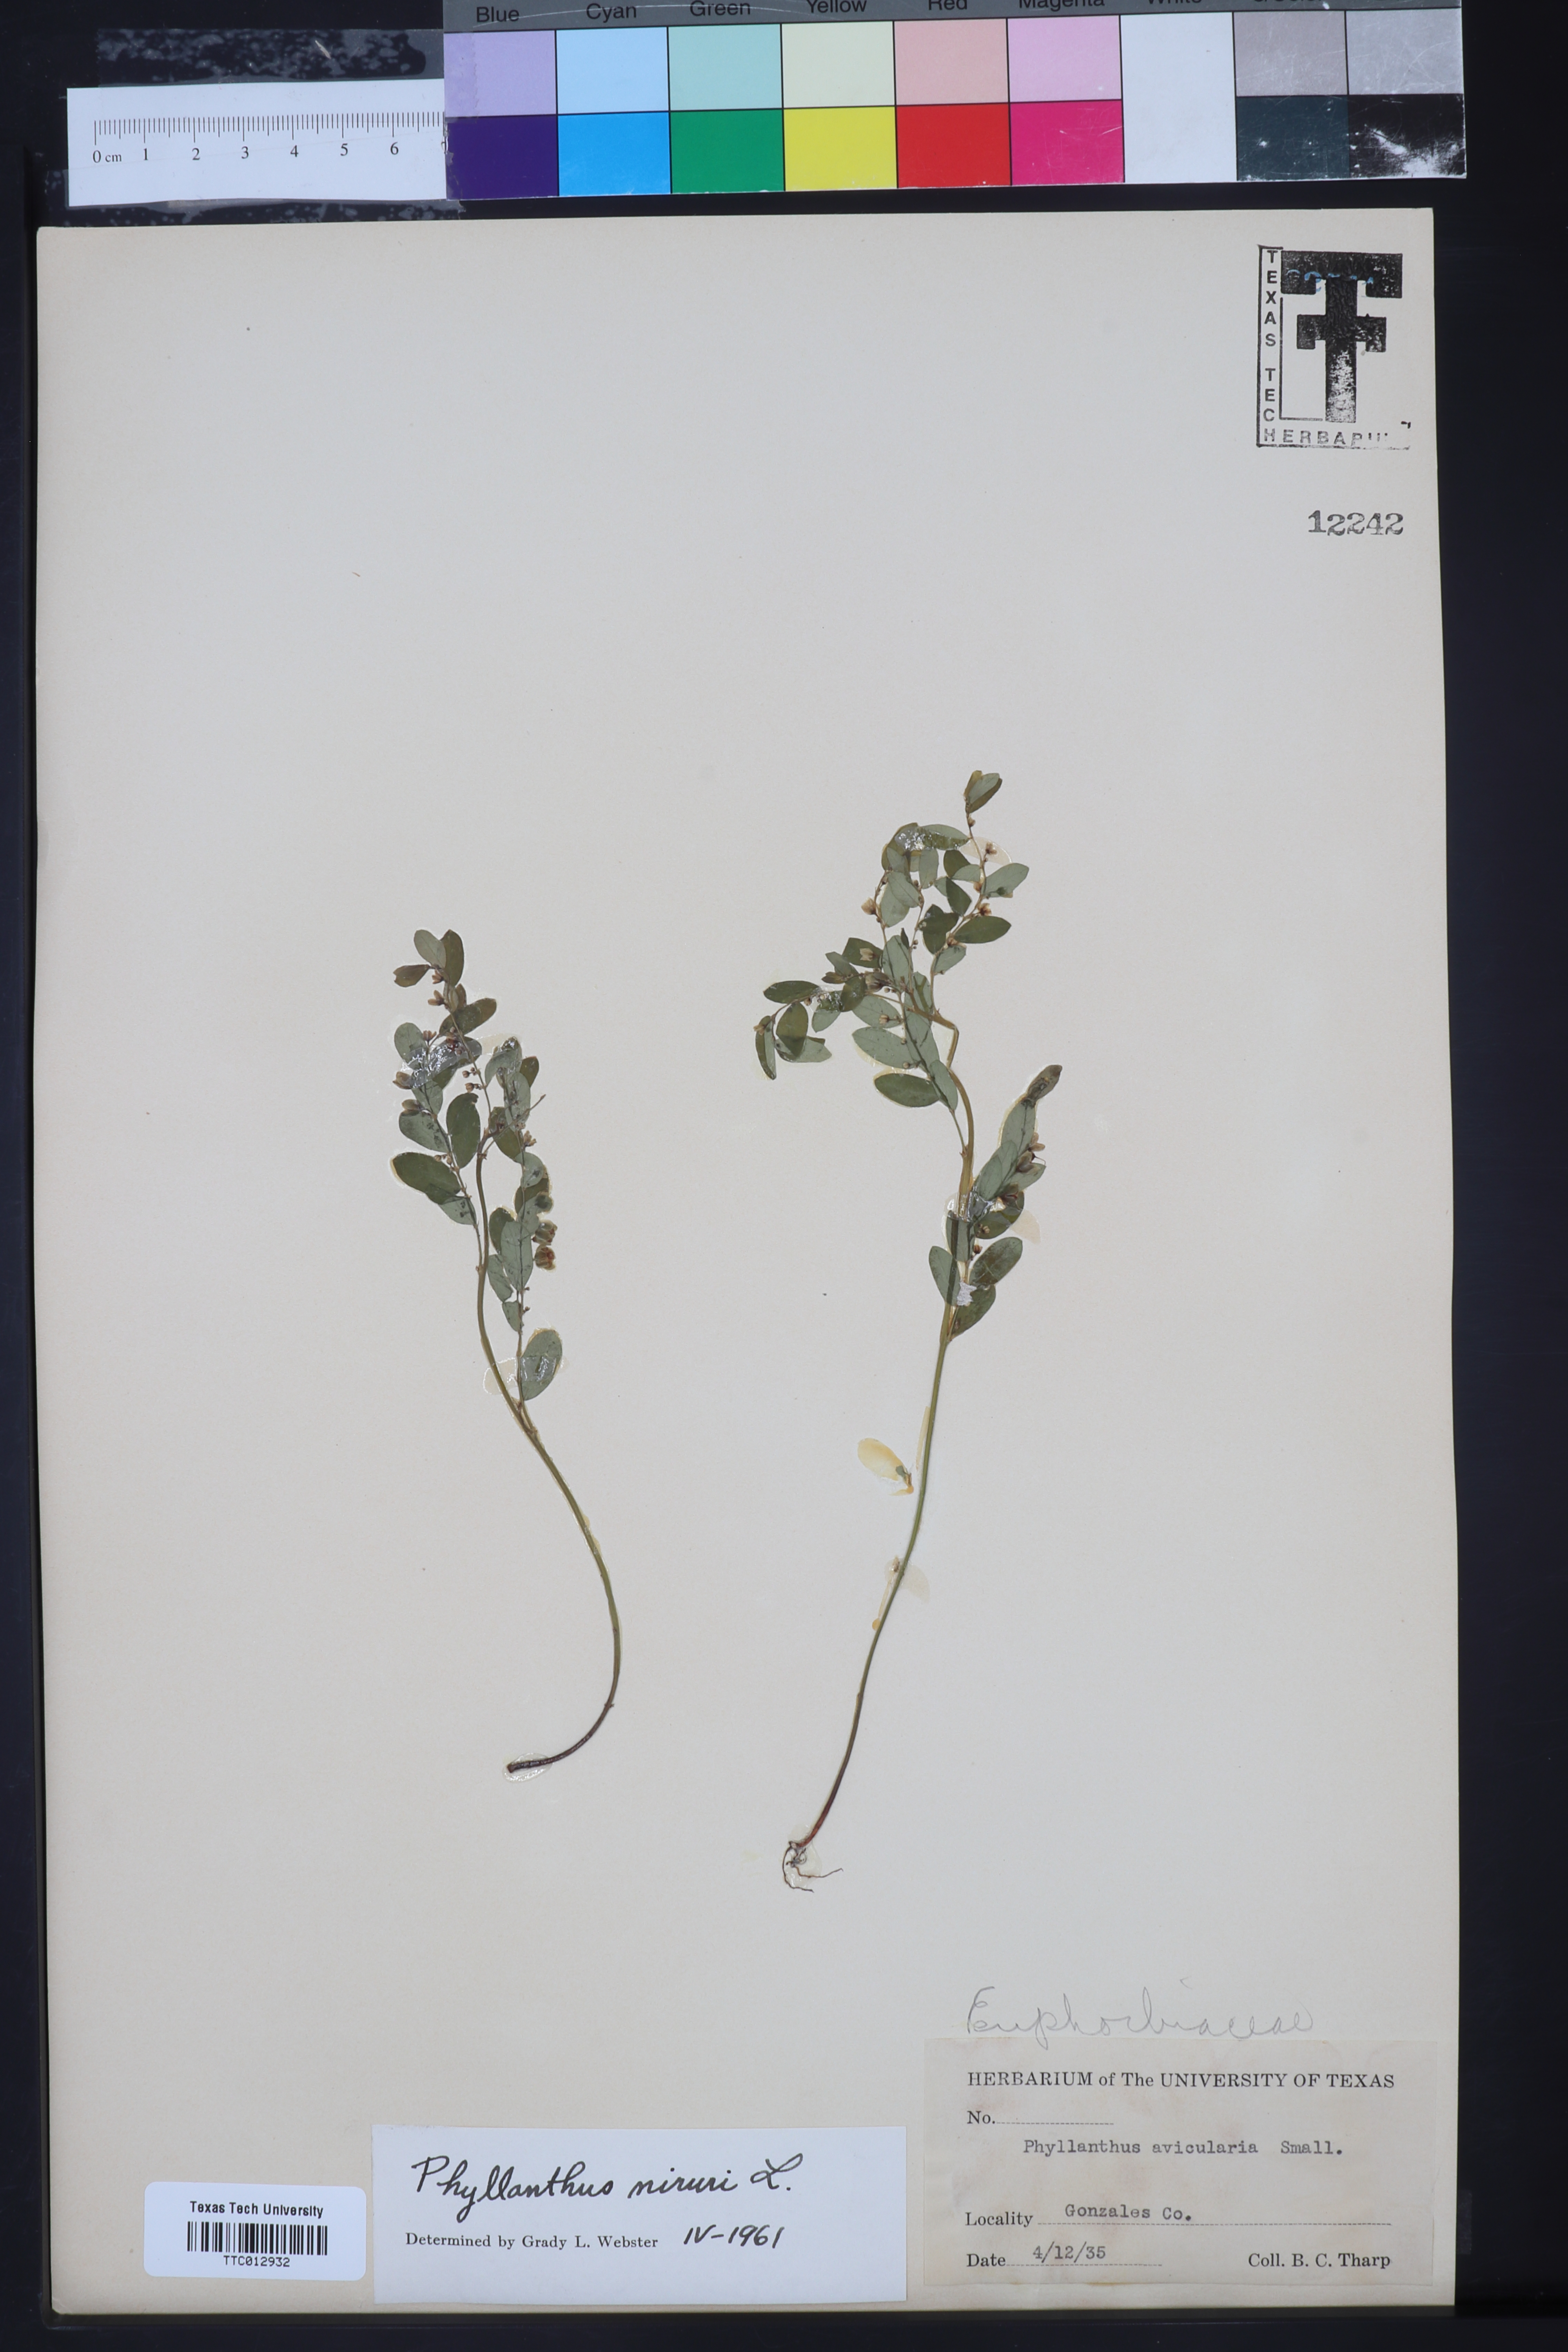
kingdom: Plantae
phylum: Tracheophyta
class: Magnoliopsida
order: Malpighiales
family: Phyllanthaceae
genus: Phyllanthus
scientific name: Phyllanthus niruri
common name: Niruri
